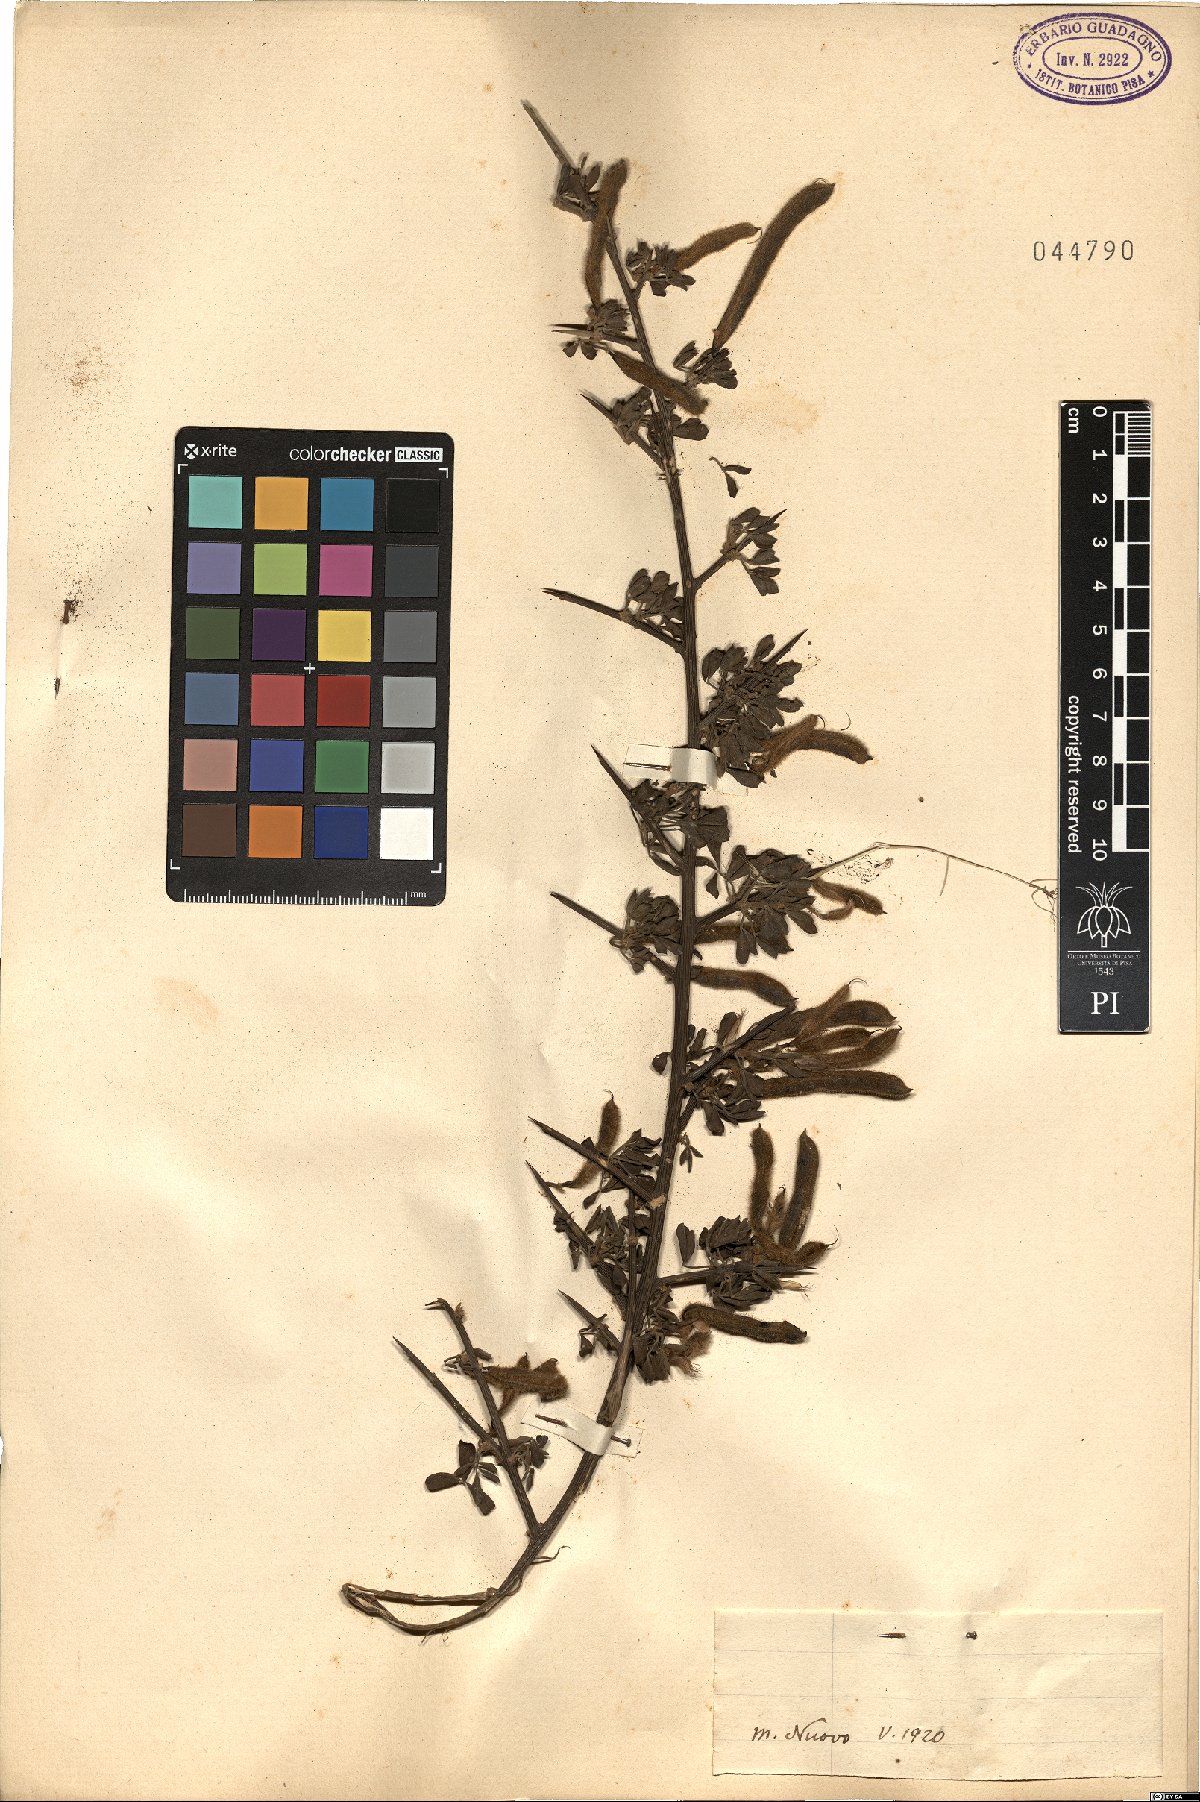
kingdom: Plantae
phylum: Tracheophyta
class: Magnoliopsida
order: Fabales
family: Fabaceae
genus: Calicotome
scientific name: Calicotome
